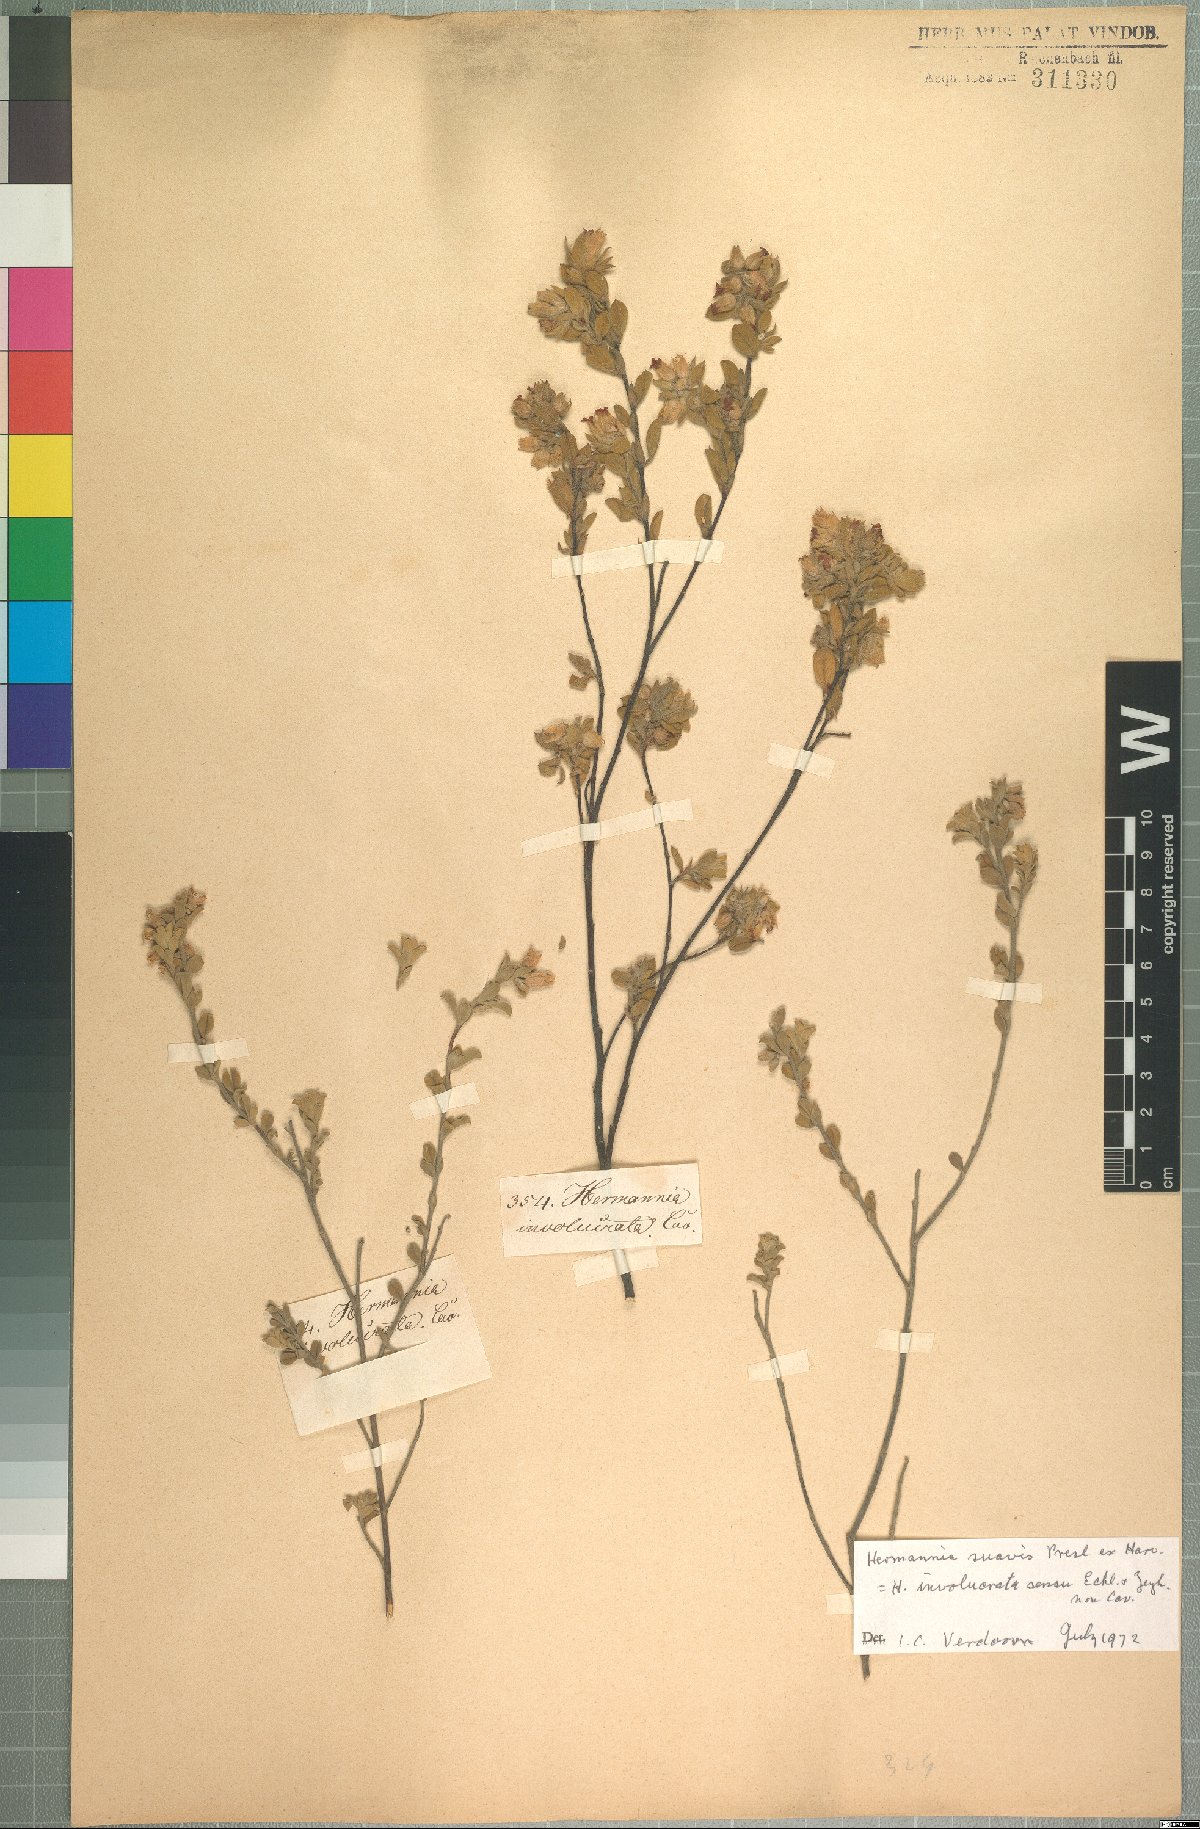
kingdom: Plantae
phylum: Tracheophyta
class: Magnoliopsida
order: Malvales
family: Malvaceae
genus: Hermannia
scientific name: Hermannia suavis
